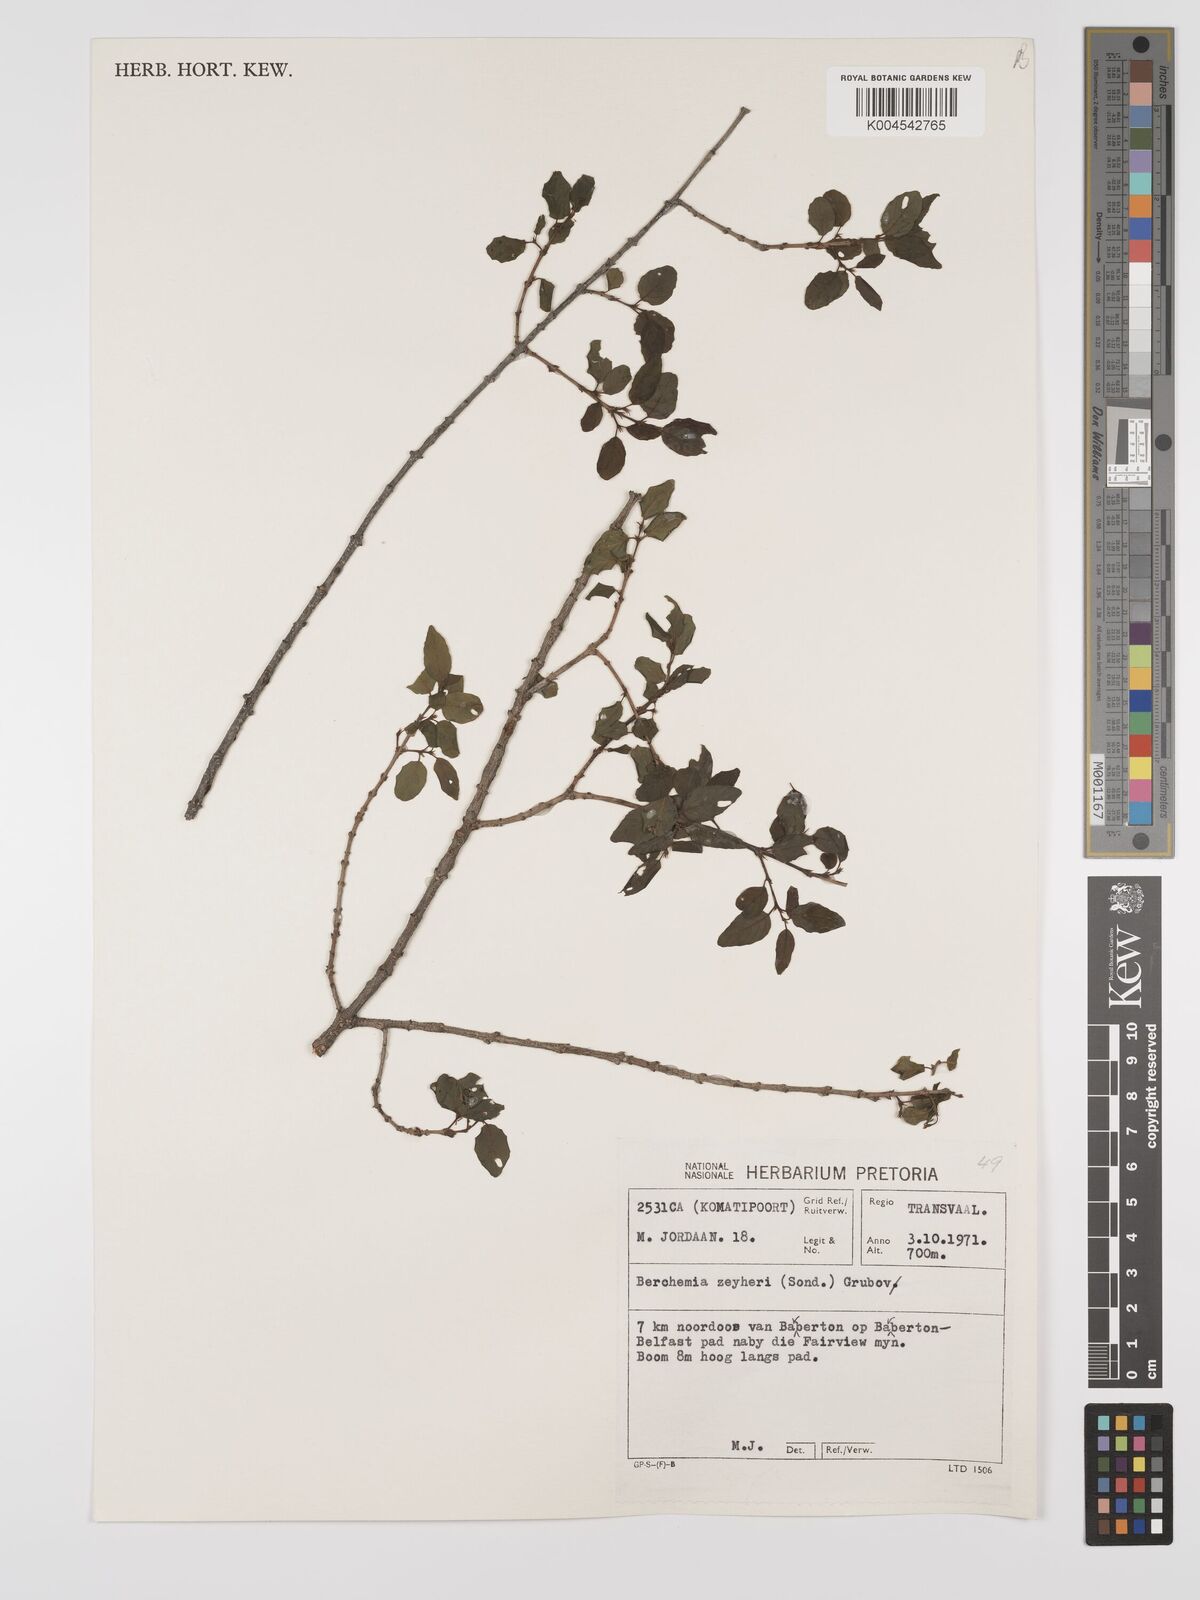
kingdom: Plantae
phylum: Tracheophyta
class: Magnoliopsida
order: Rosales
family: Rhamnaceae
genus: Phyllogeiton
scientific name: Phyllogeiton zeyheri
